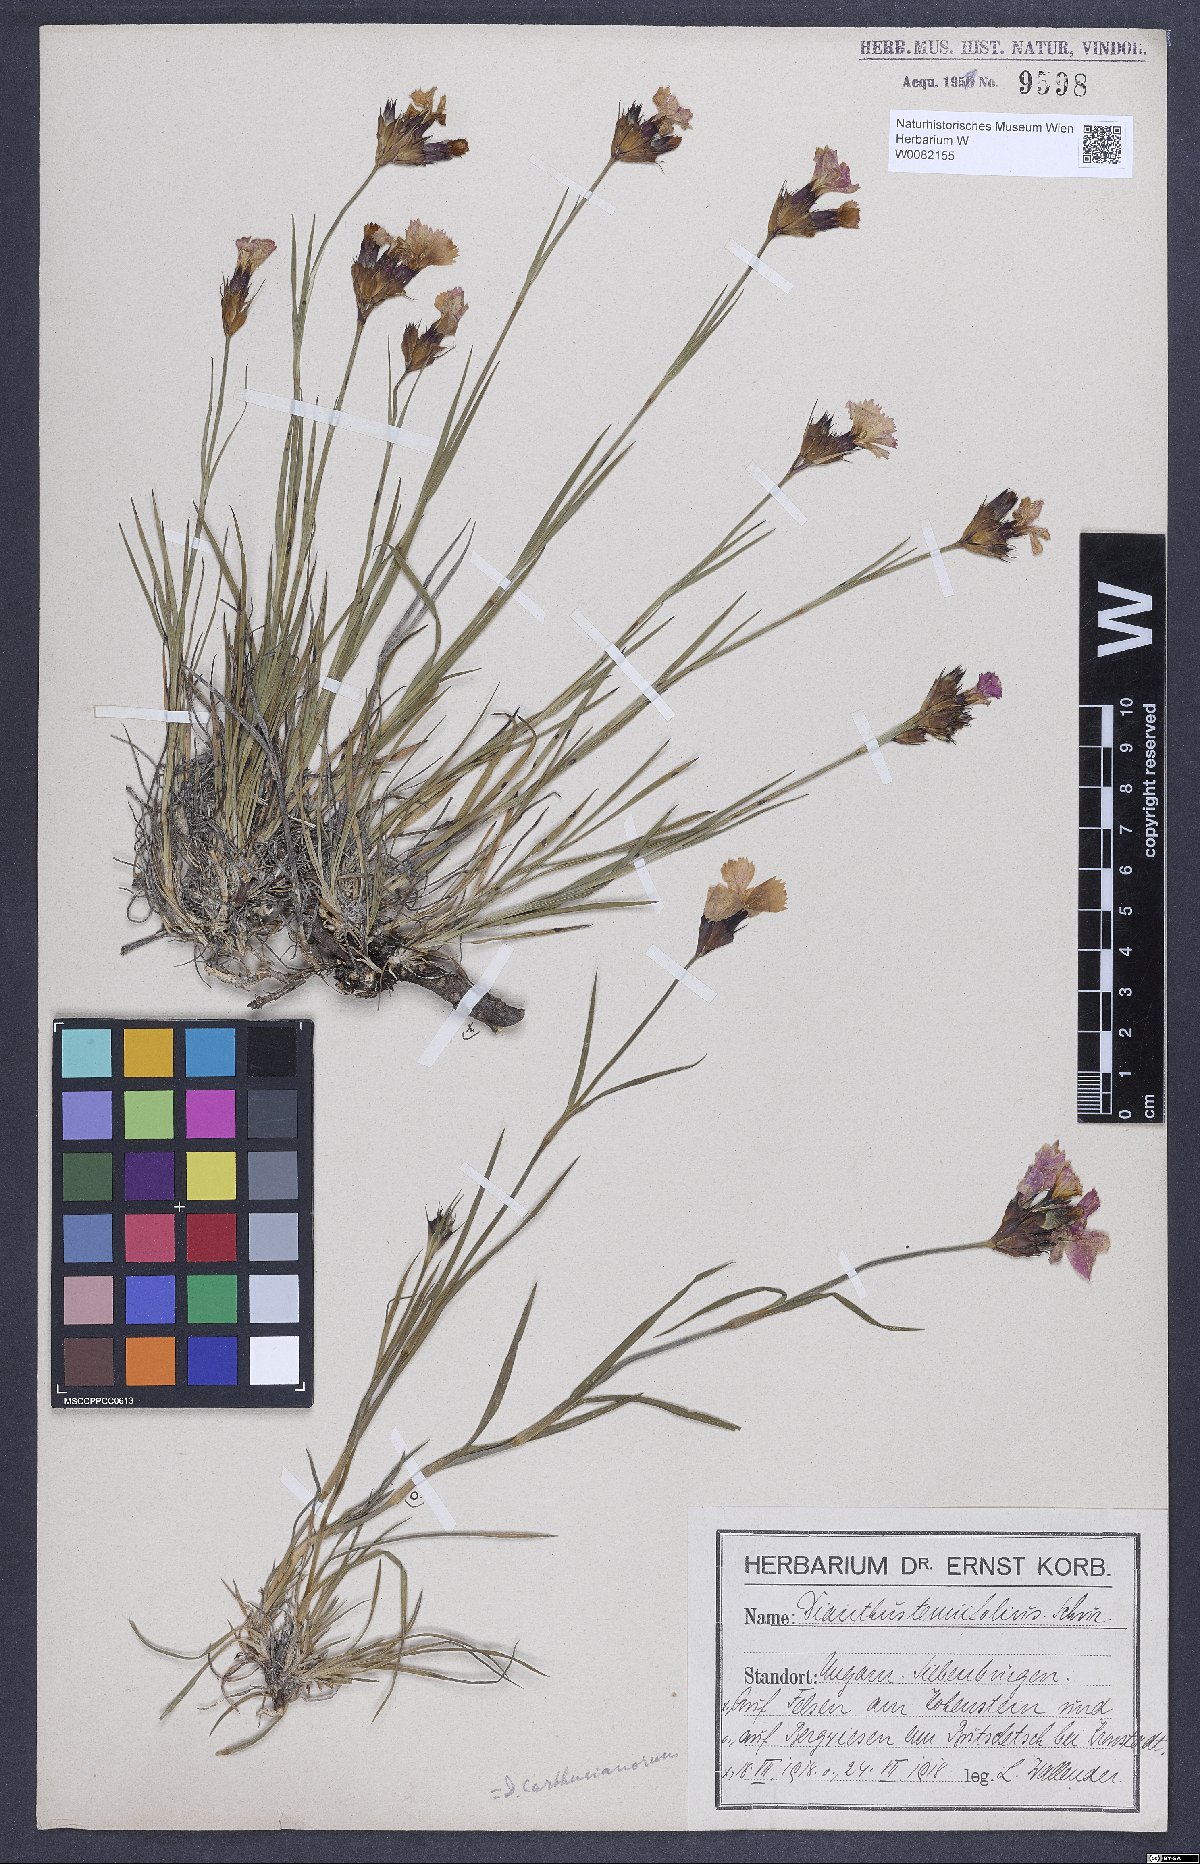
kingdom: Plantae
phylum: Tracheophyta
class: Magnoliopsida
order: Caryophyllales
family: Caryophyllaceae
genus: Dianthus
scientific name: Dianthus carthusianorum
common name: Carthusian pink
